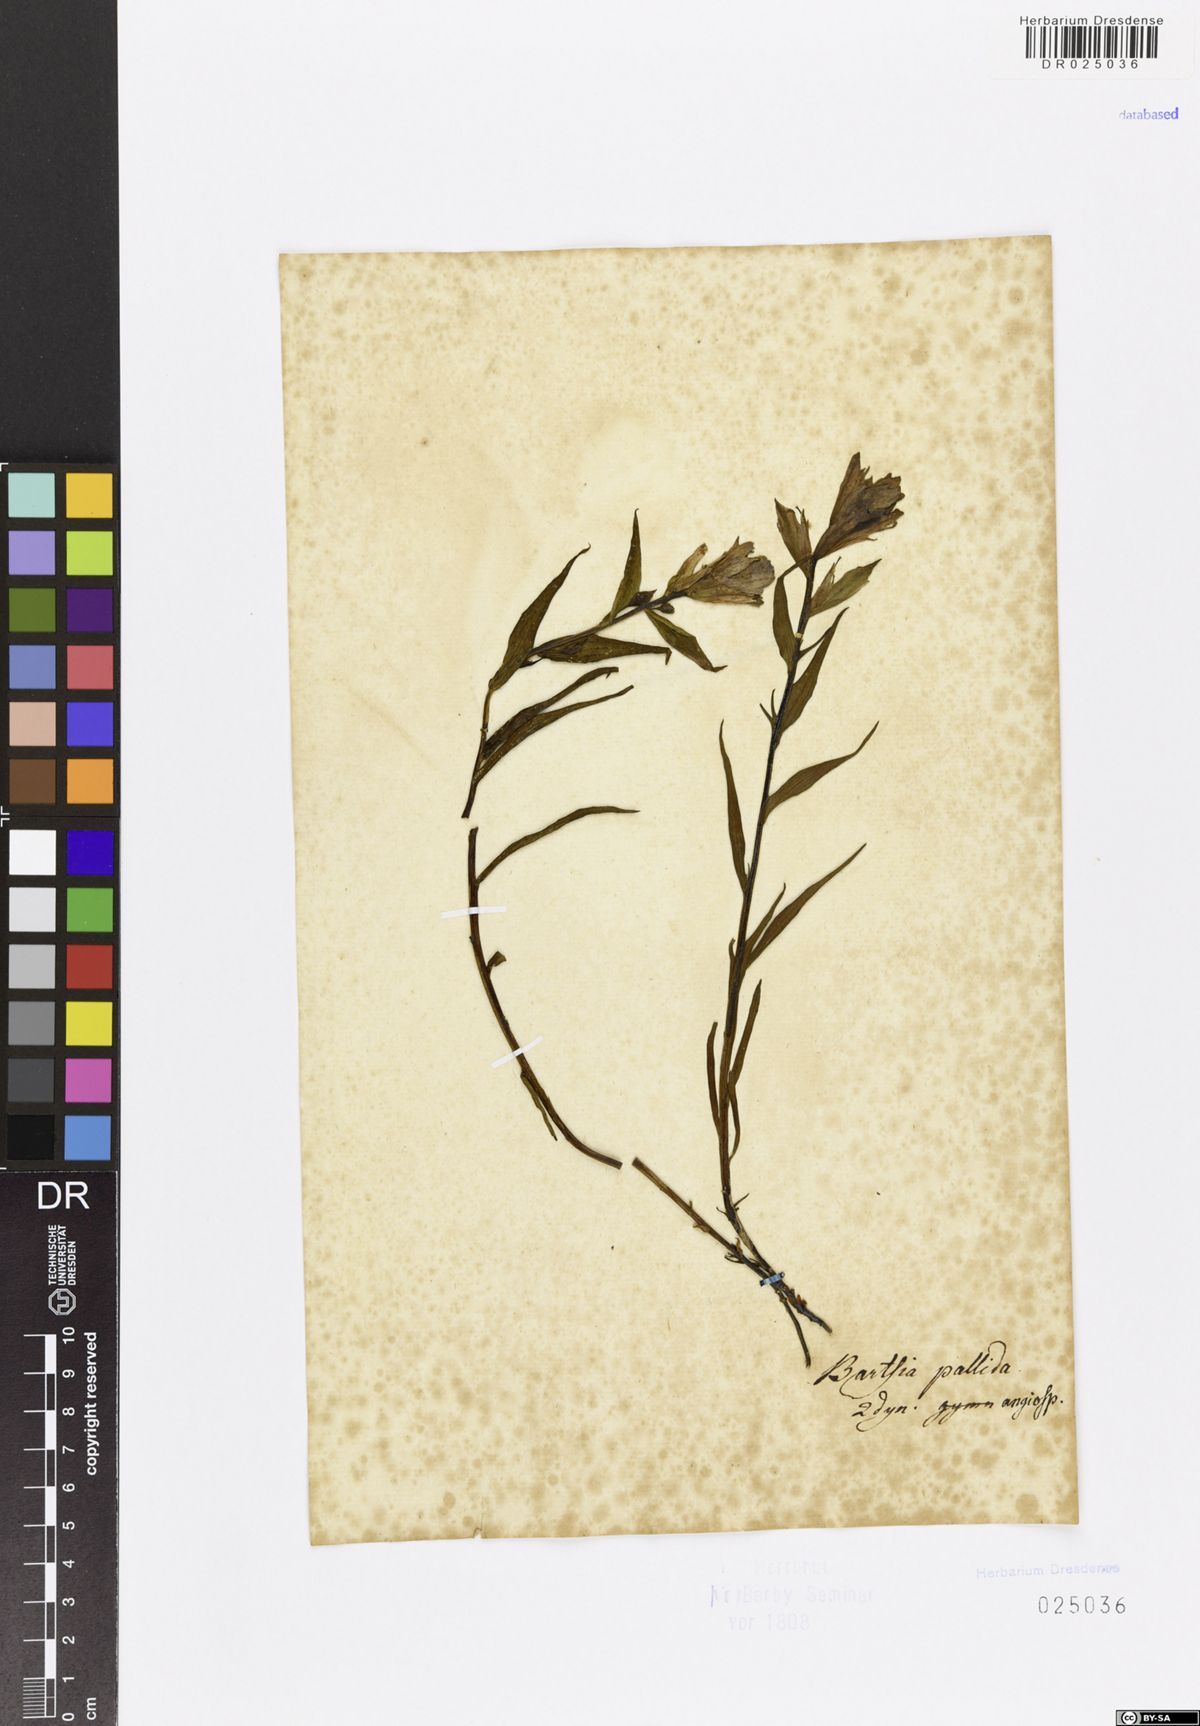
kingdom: Plantae
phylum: Tracheophyta
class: Magnoliopsida
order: Lamiales
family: Orobanchaceae
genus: Castilleja
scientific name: Castilleja pallida
